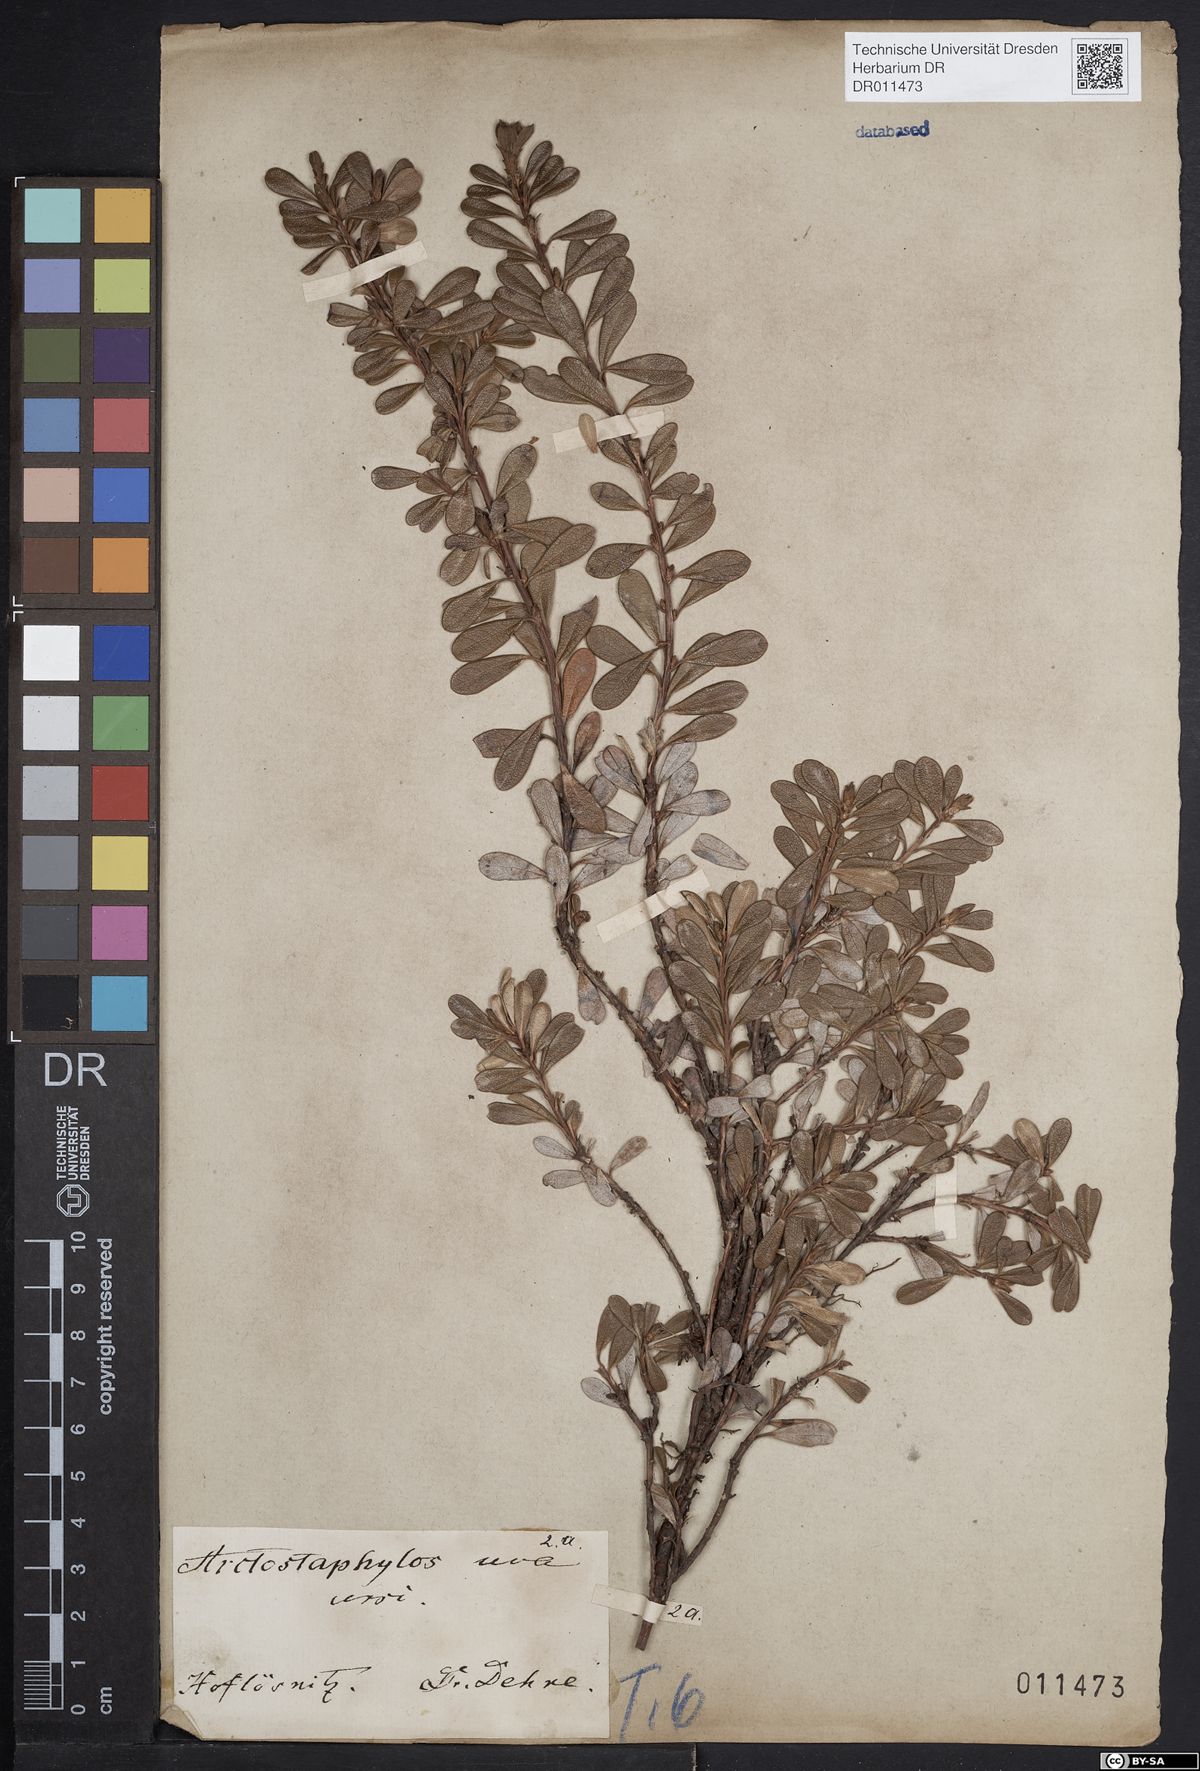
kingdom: Plantae
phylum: Tracheophyta
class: Magnoliopsida
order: Ericales
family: Ericaceae
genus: Arctostaphylos
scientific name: Arctostaphylos uva-ursi
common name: Bearberry
